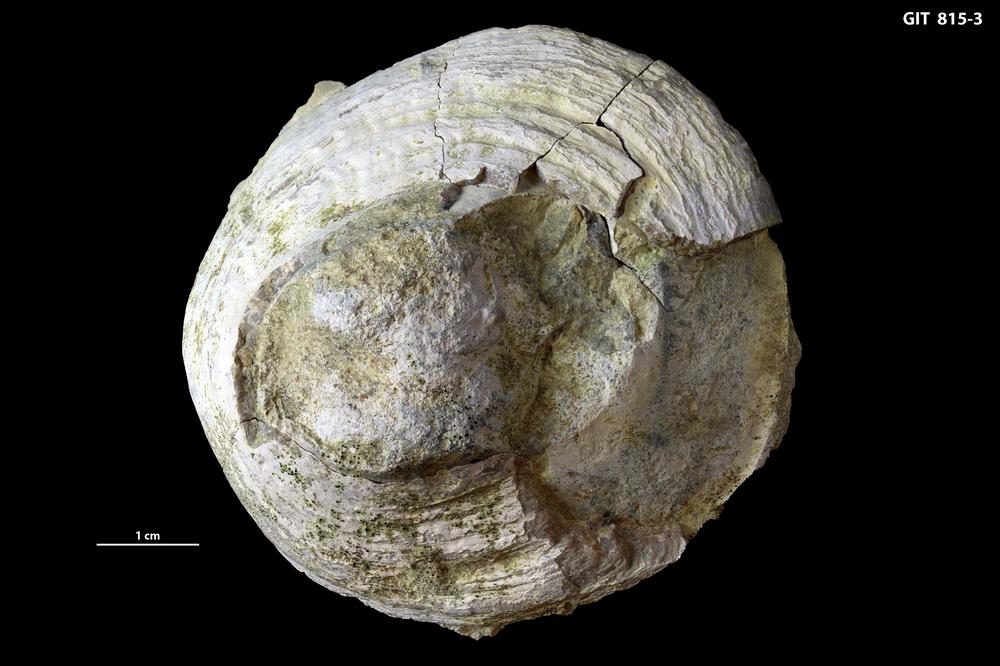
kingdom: Animalia
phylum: Mollusca
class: Monoplacophora
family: Metoptomatidae
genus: Metoptoma
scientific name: Metoptoma
